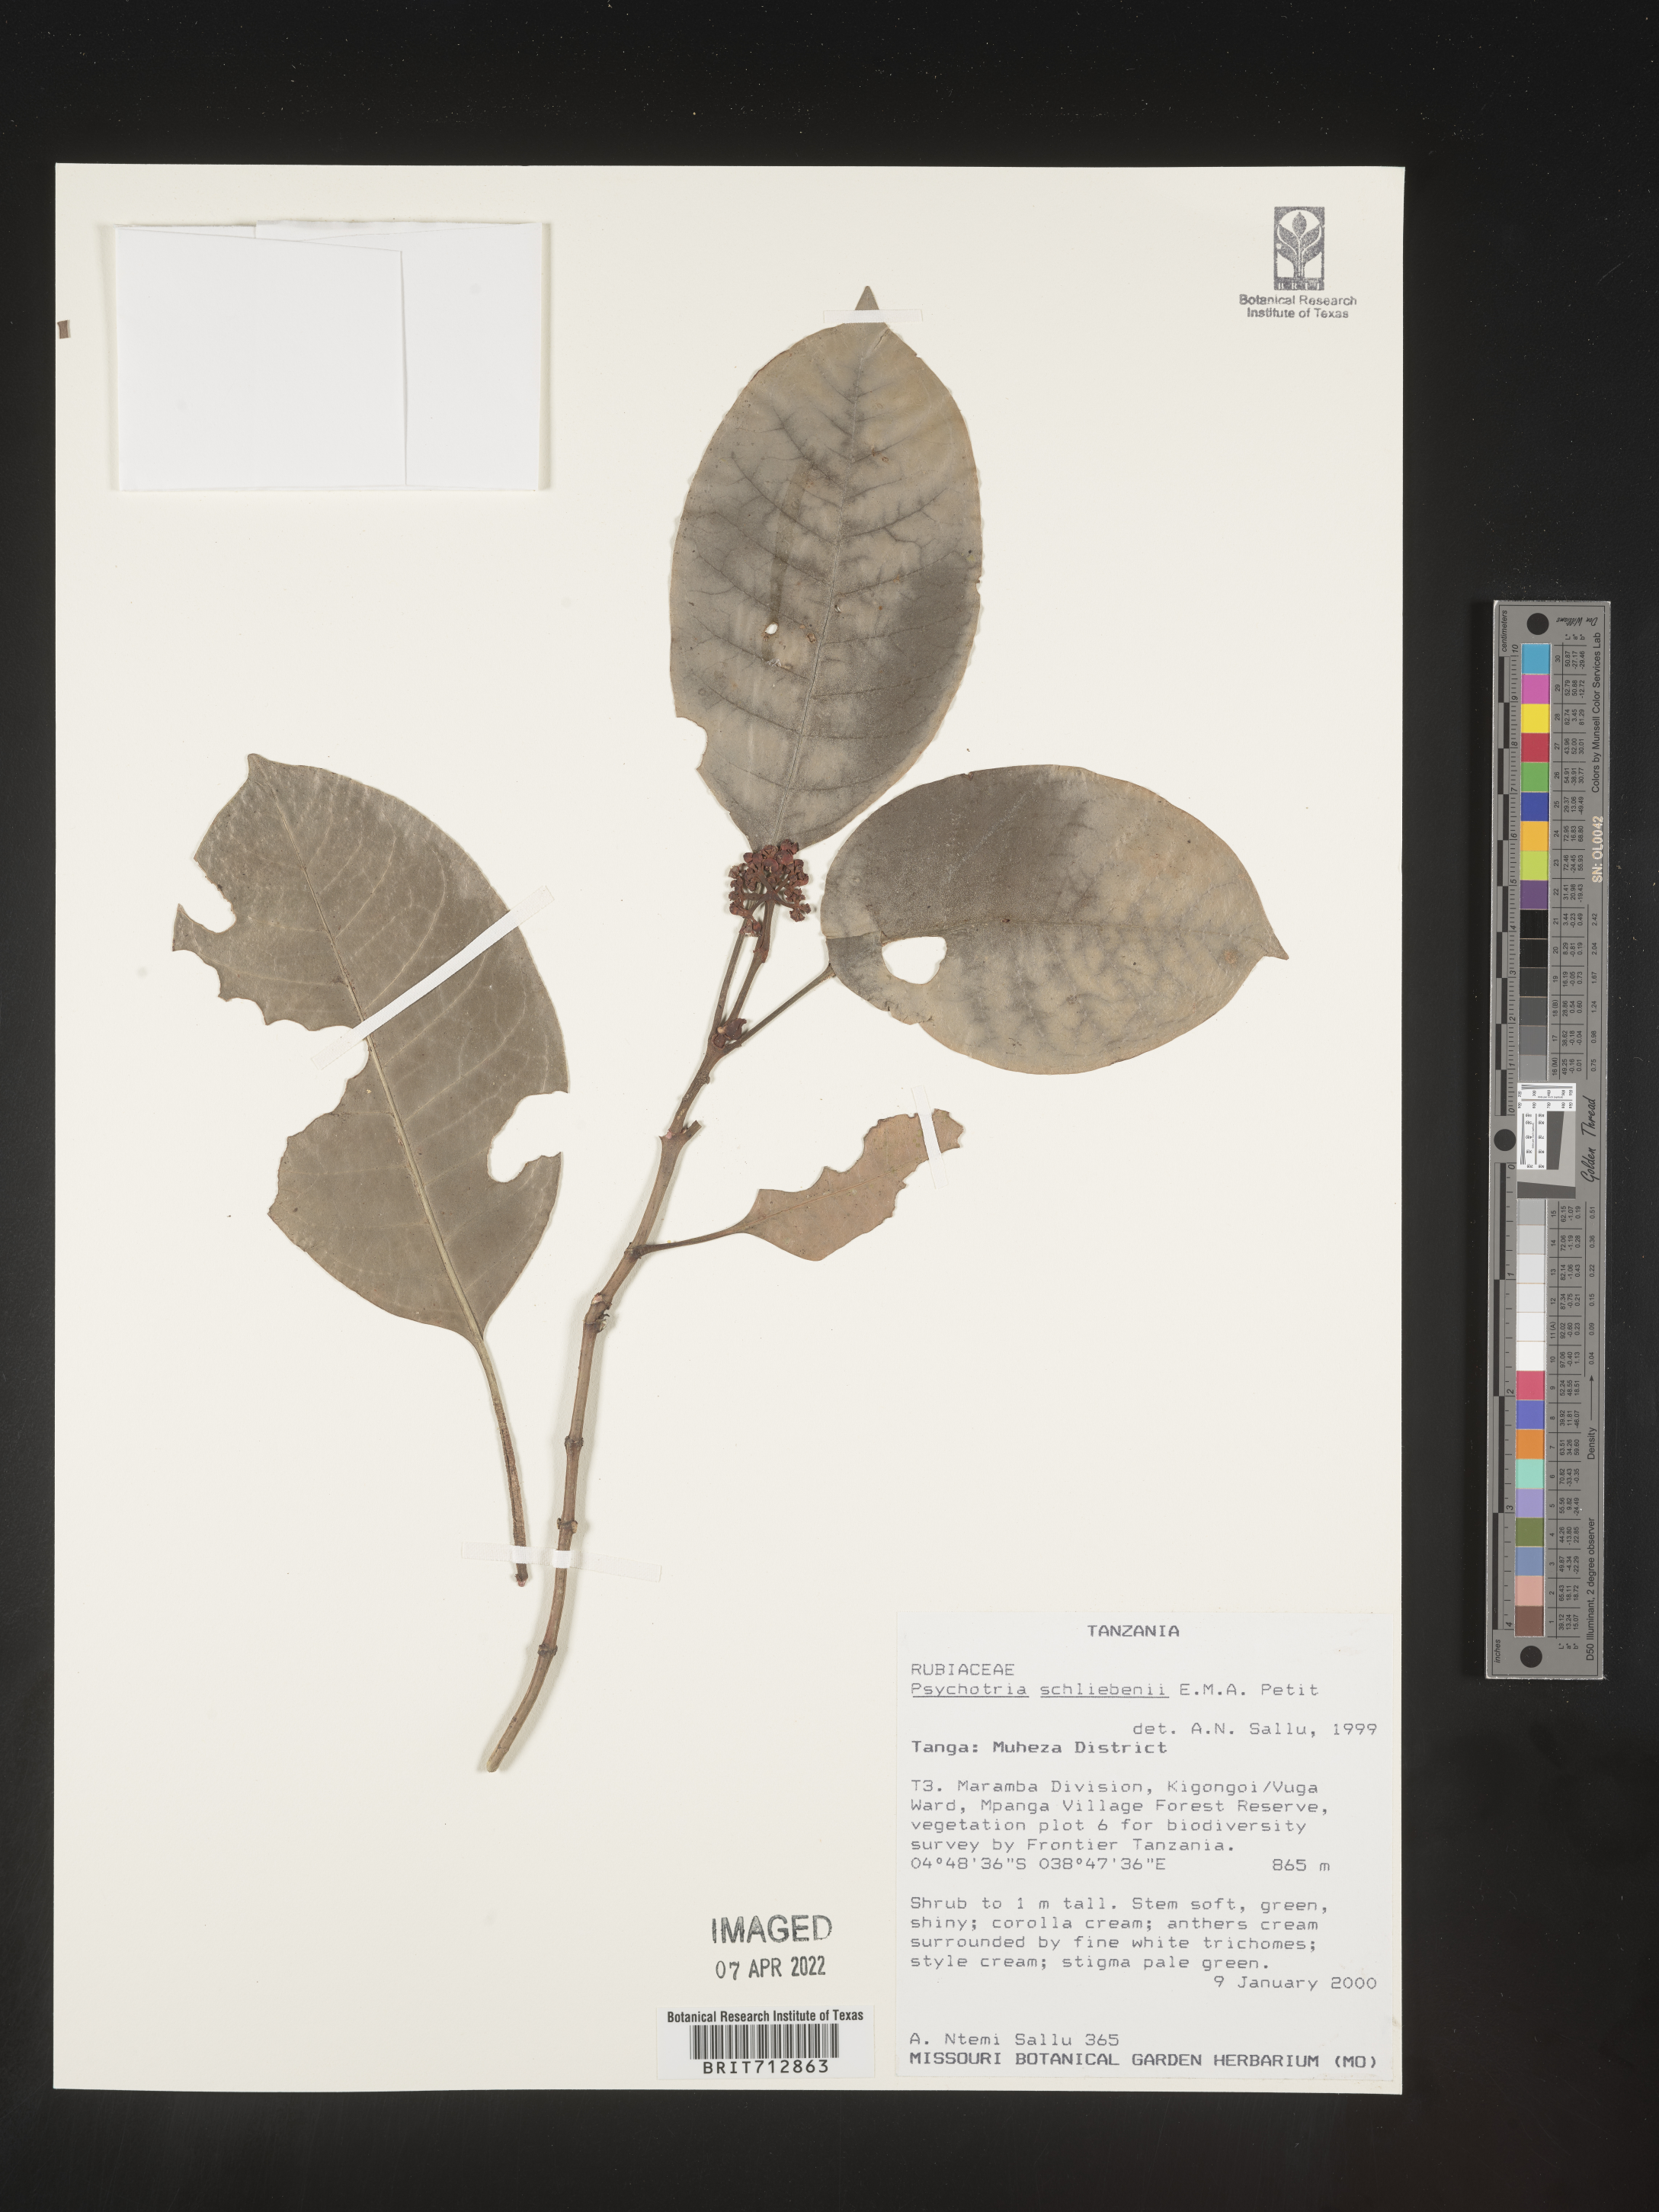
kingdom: Plantae
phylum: Tracheophyta
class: Magnoliopsida
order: Gentianales
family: Rubiaceae
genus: Psychotria
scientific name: Psychotria
